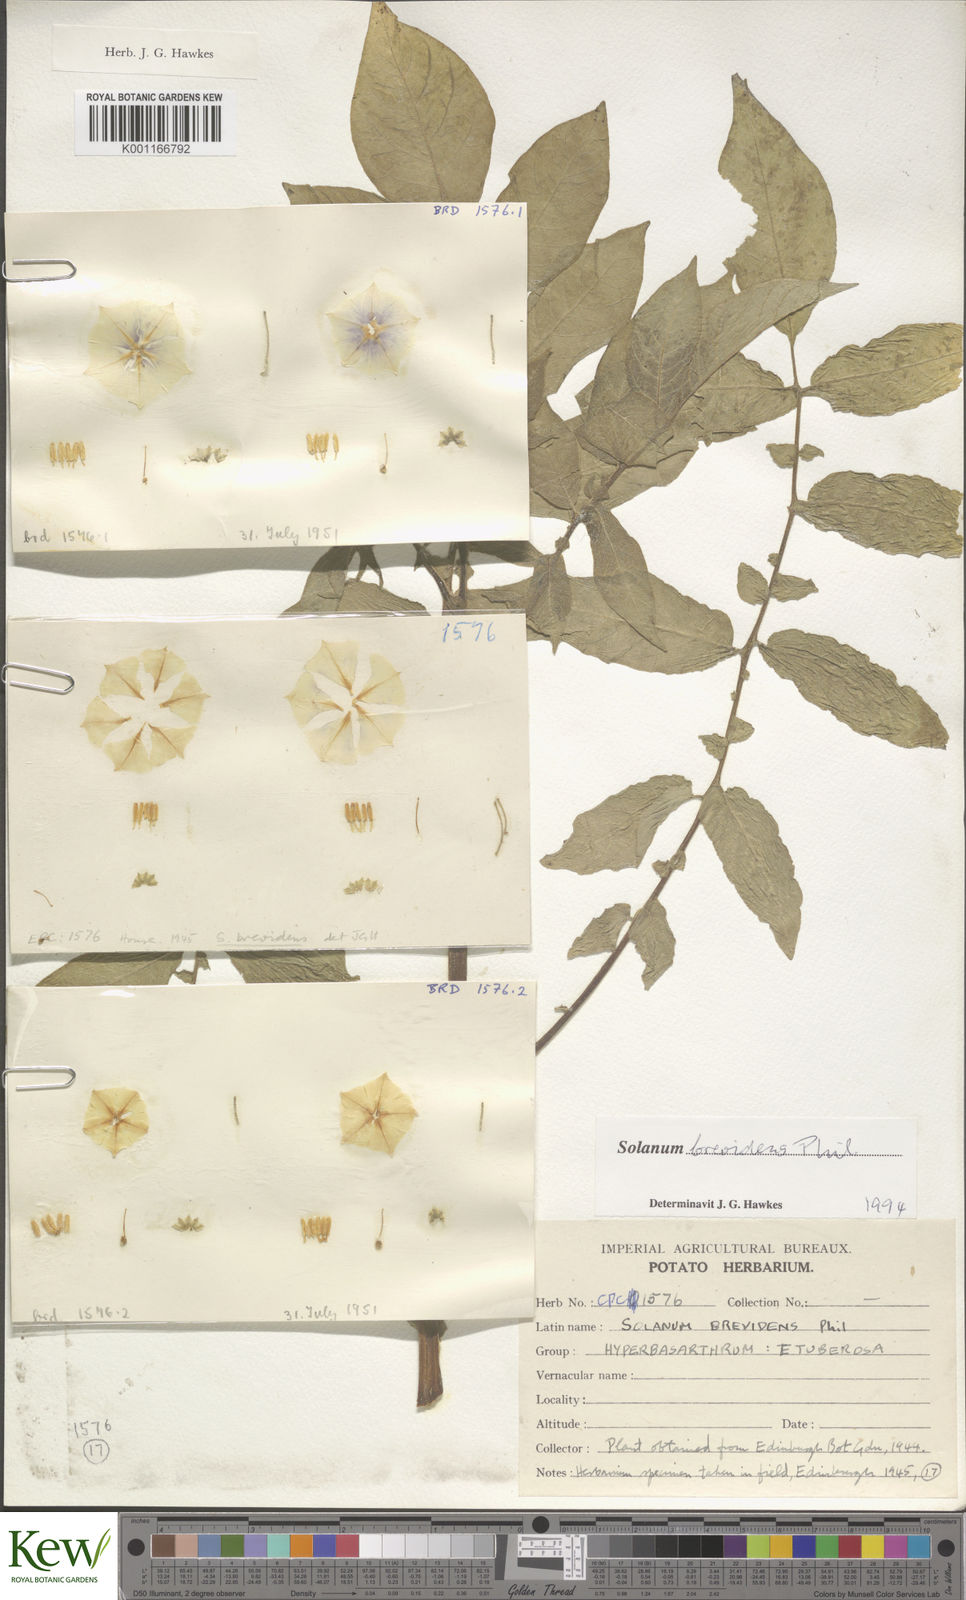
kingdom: Plantae
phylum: Tracheophyta
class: Magnoliopsida
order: Solanales
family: Solanaceae
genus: Solanum
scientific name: Solanum palustre
